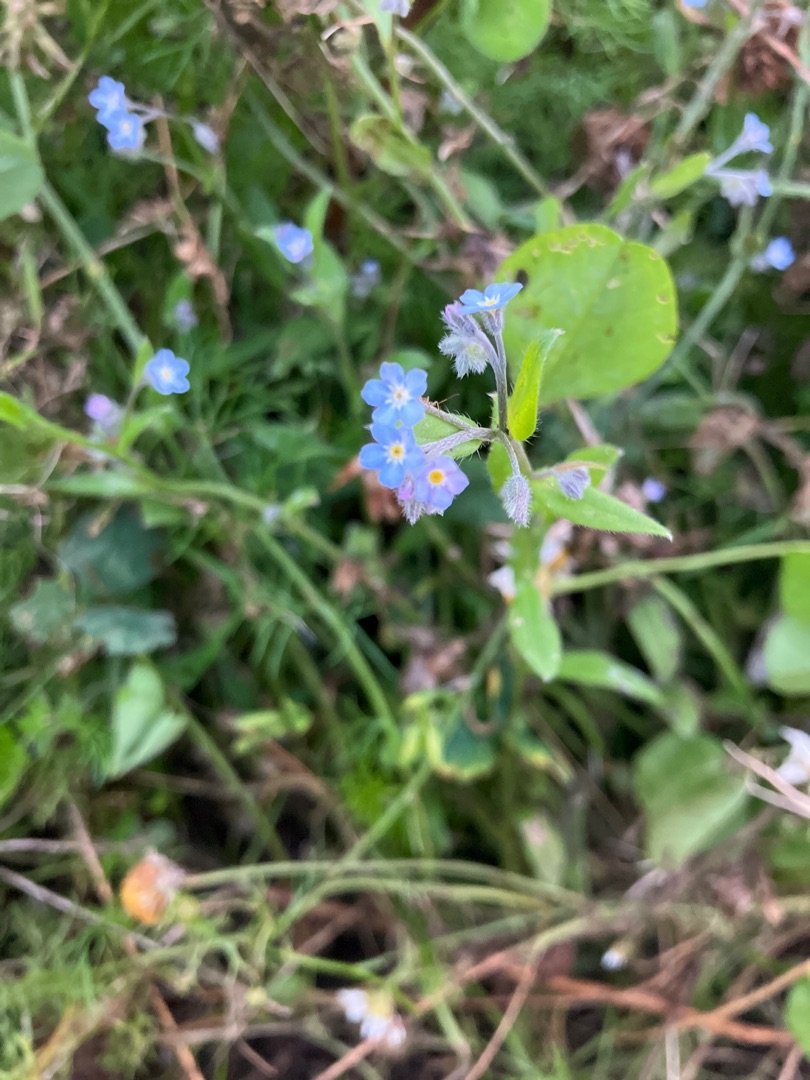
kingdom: Plantae
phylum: Tracheophyta
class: Magnoliopsida
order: Boraginales
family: Boraginaceae
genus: Myosotis
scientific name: Myosotis arvensis
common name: Mark-forglemmigej
